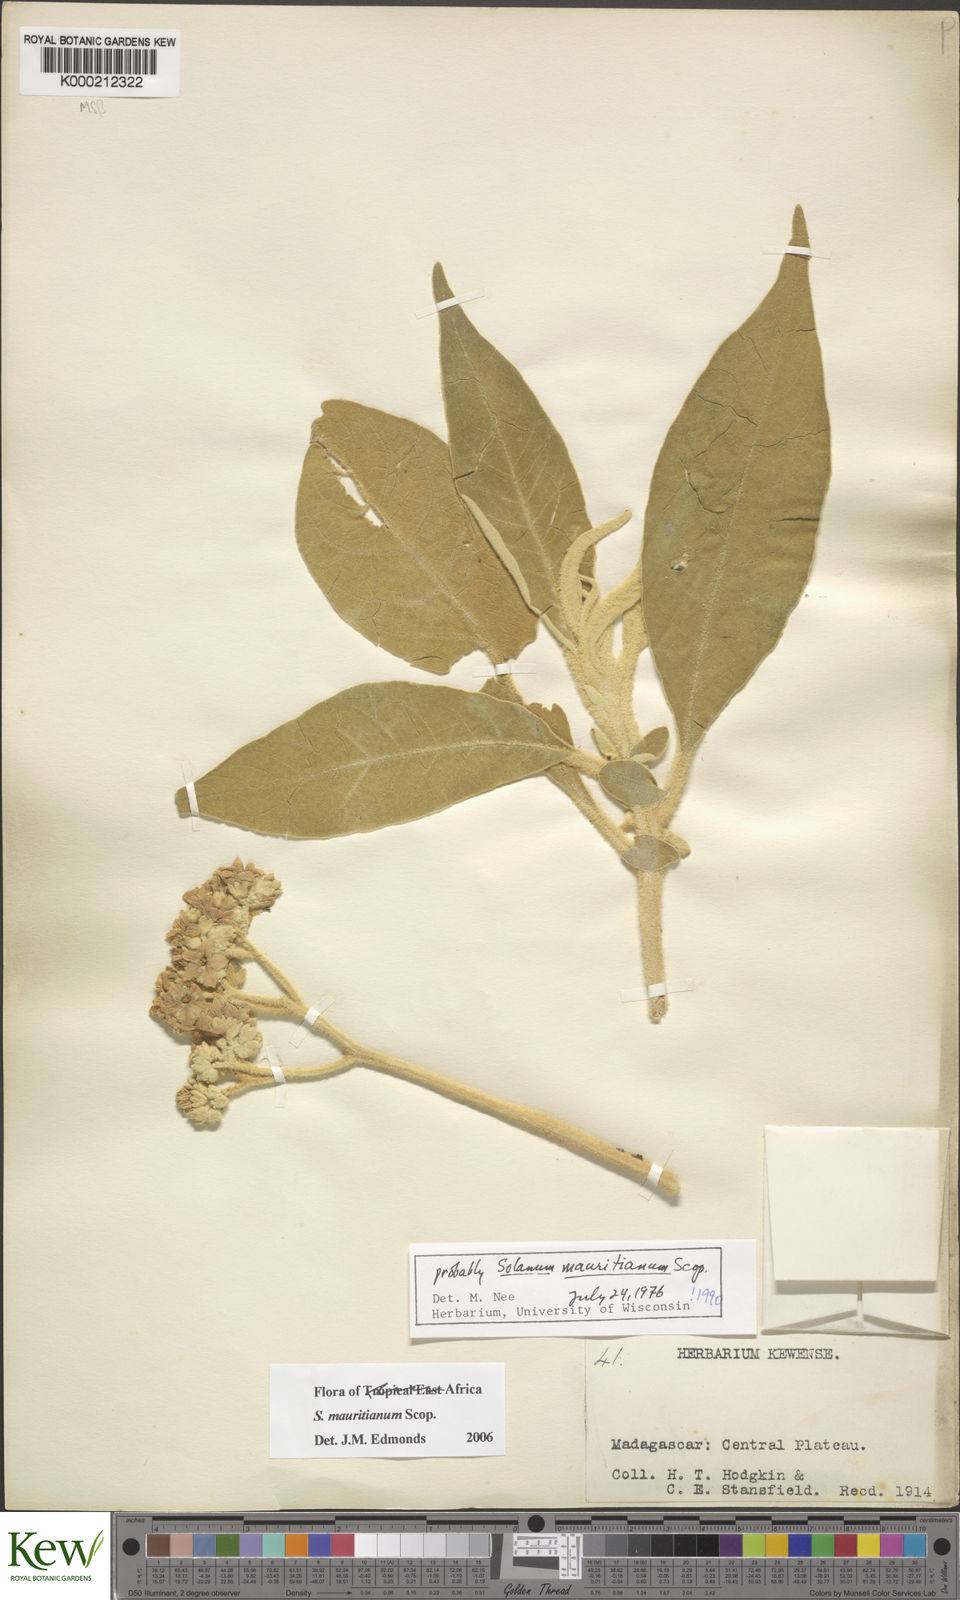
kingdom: Plantae
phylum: Tracheophyta
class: Magnoliopsida
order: Solanales
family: Solanaceae
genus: Solanum
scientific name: Solanum mauritianum
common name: Earleaf nightshade
